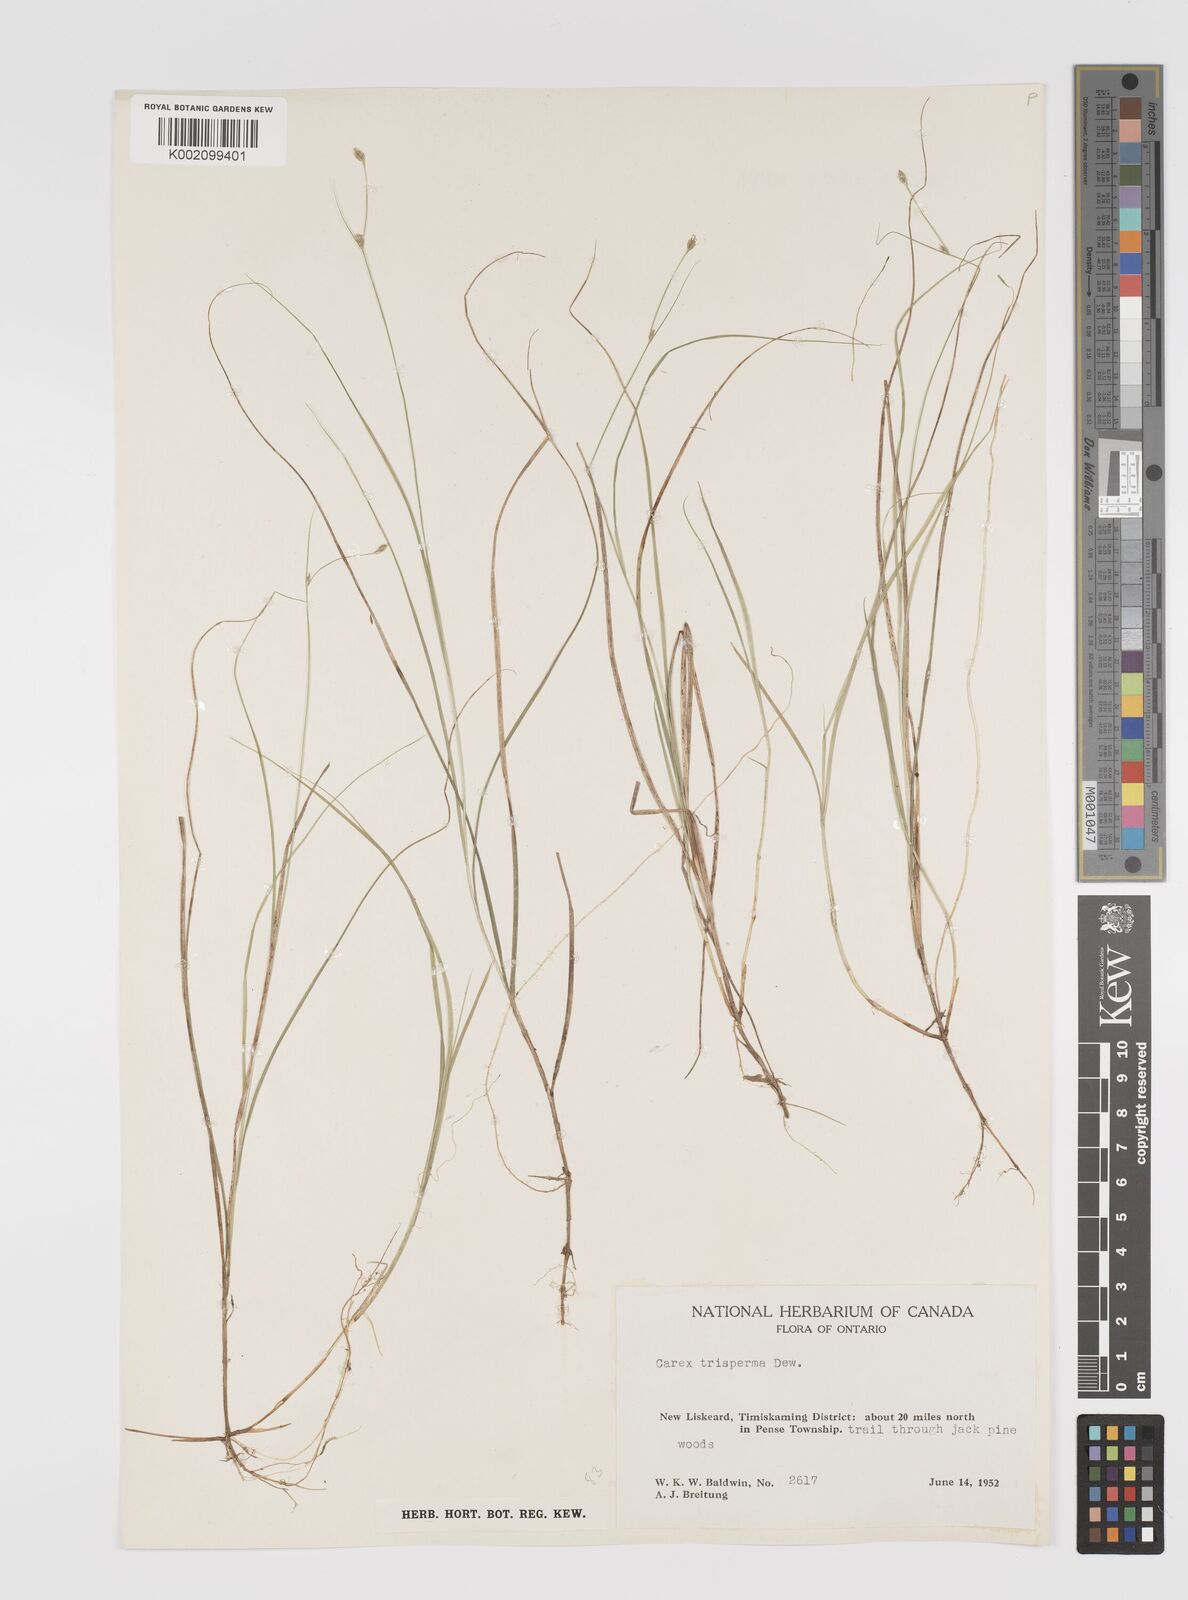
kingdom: Plantae
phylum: Tracheophyta
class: Liliopsida
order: Poales
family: Cyperaceae
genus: Carex
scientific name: Carex trisperma
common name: Three-seeded sedge
